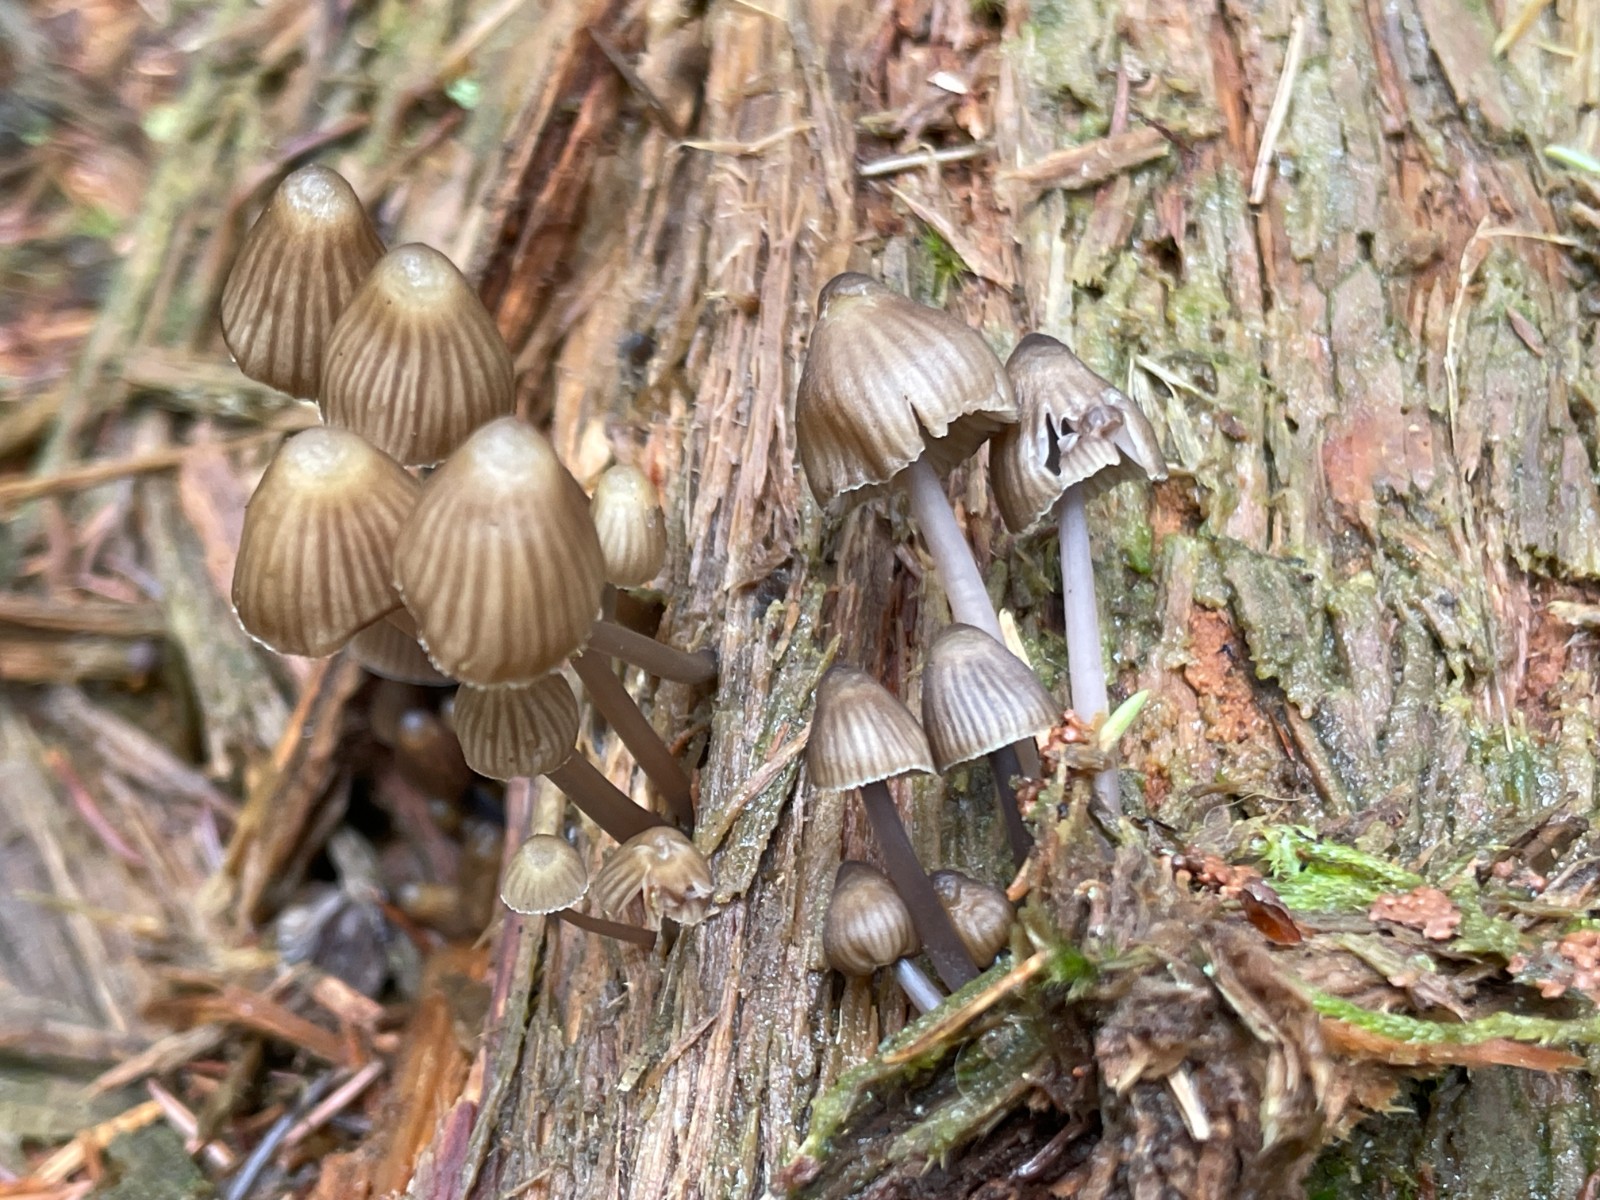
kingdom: Fungi
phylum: Basidiomycota
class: Agaricomycetes
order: Agaricales
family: Mycenaceae
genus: Mycena
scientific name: Mycena stipata
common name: stinkende huesvamp
